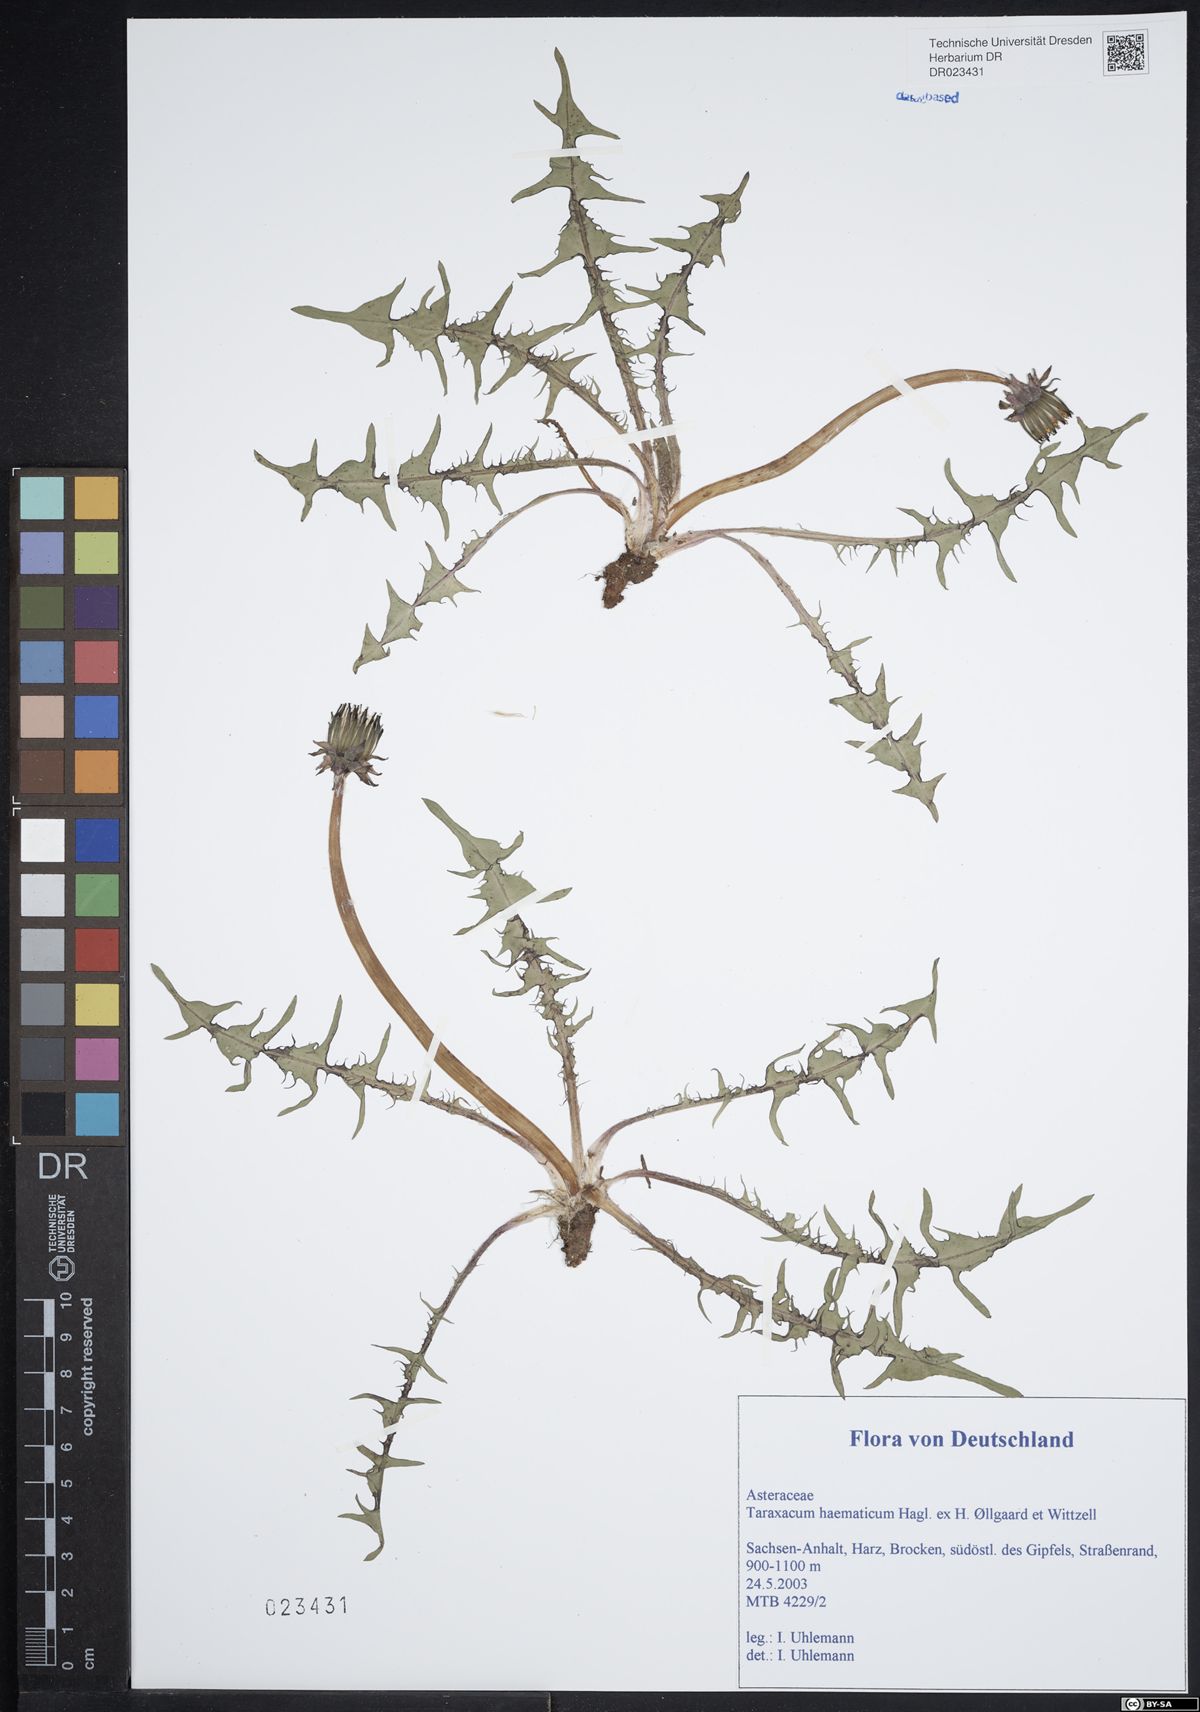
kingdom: Plantae
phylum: Tracheophyta
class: Magnoliopsida
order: Asterales
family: Asteraceae
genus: Taraxacum
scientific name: Taraxacum haematicum
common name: Blood-red dandelion
